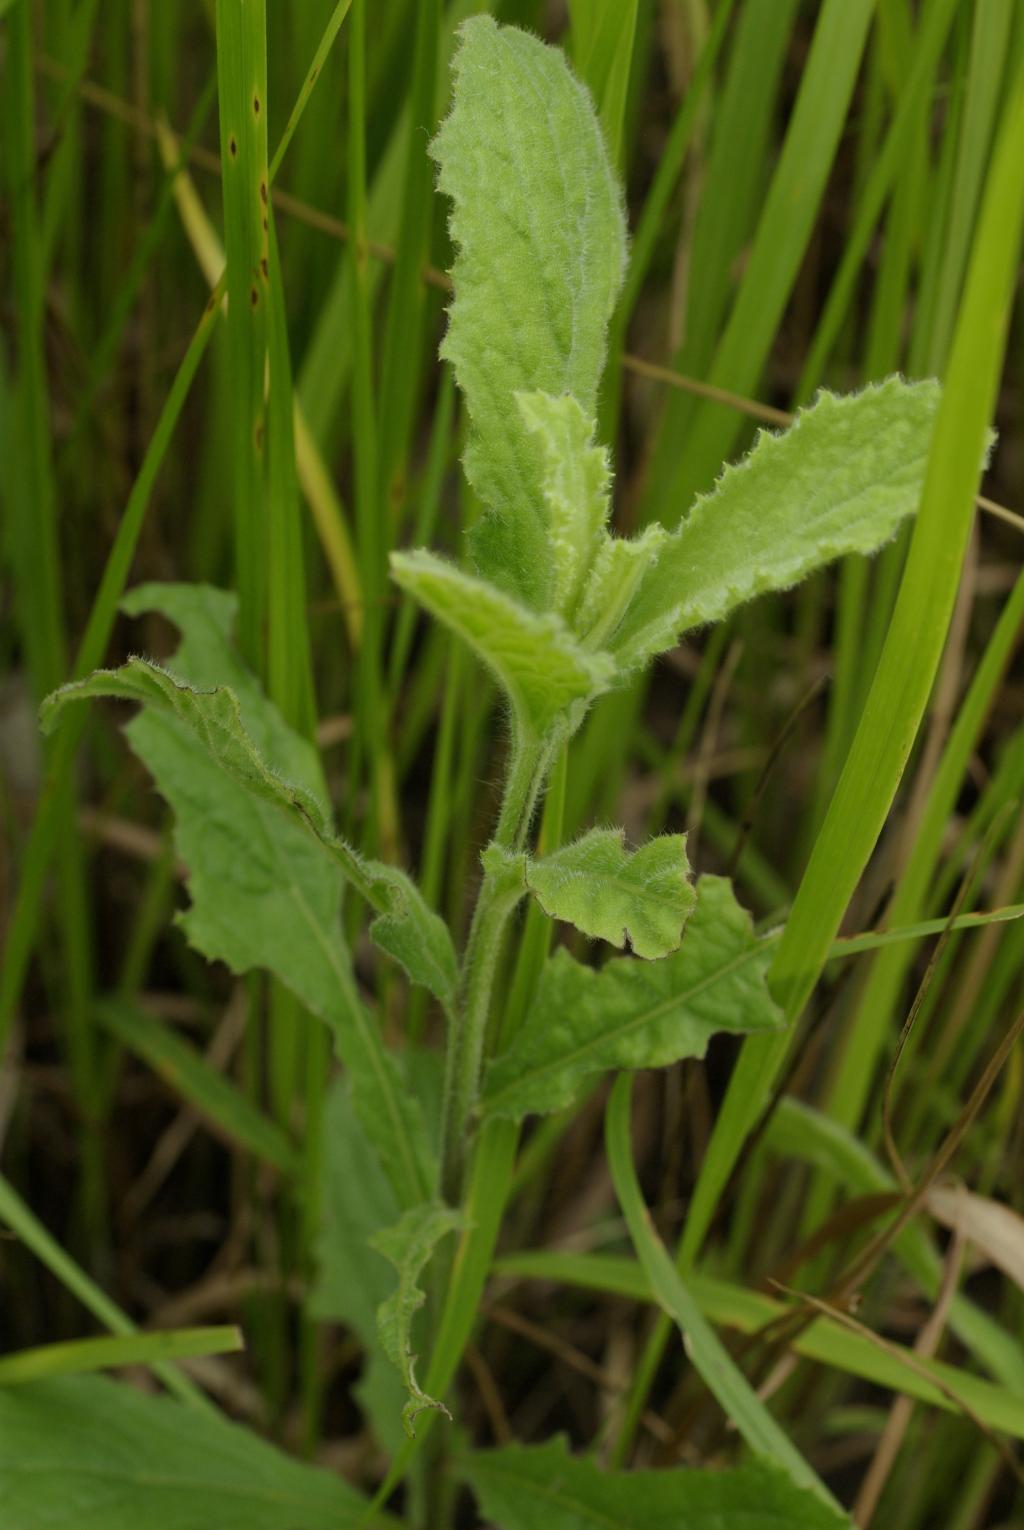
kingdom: Plantae
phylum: Tracheophyta
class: Magnoliopsida
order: Asterales
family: Asteraceae
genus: Blumea
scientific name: Blumea lacera
